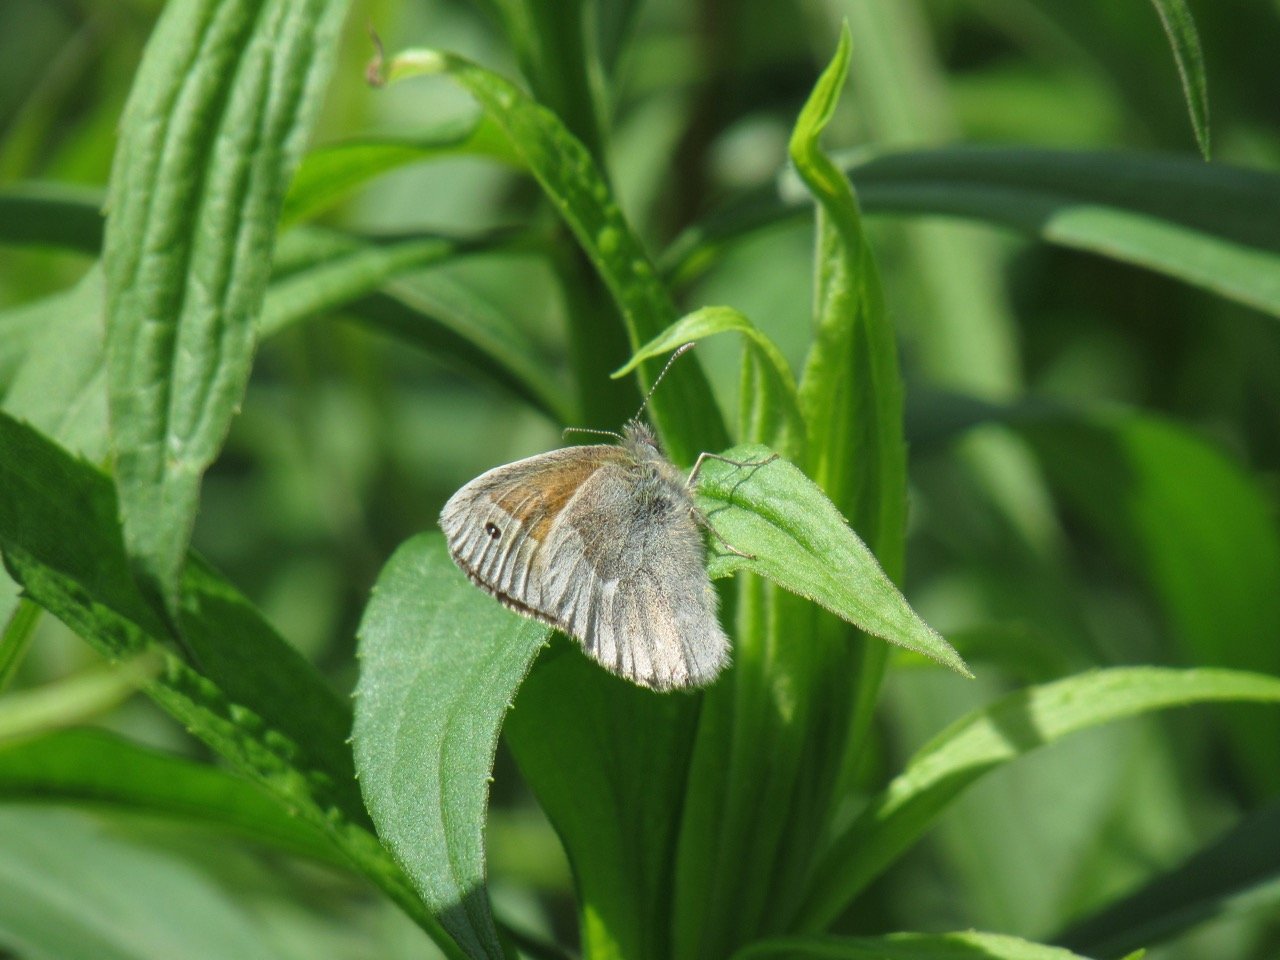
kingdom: Animalia
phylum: Arthropoda
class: Insecta
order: Lepidoptera
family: Nymphalidae
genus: Coenonympha
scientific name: Coenonympha tullia
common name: Large Heath
